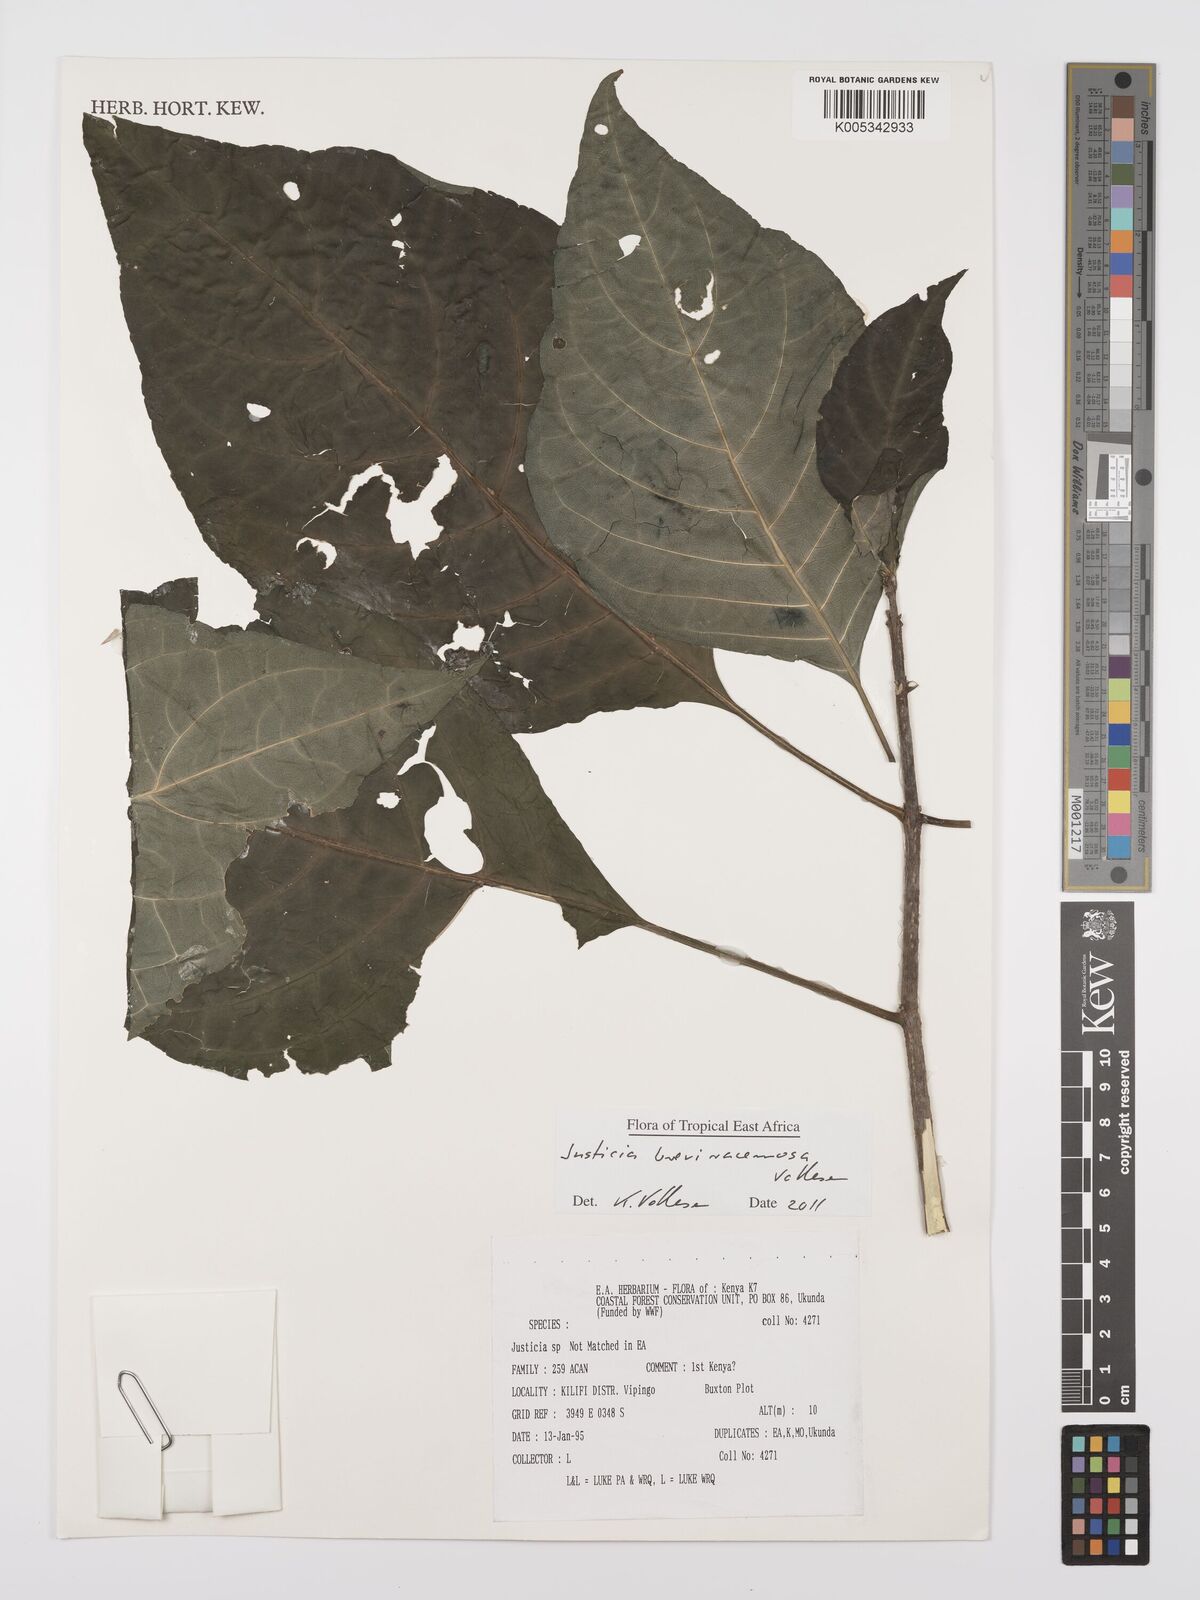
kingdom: Plantae
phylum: Tracheophyta
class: Magnoliopsida
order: Lamiales
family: Acanthaceae
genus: Justicia
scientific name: Justicia breviracemosa
